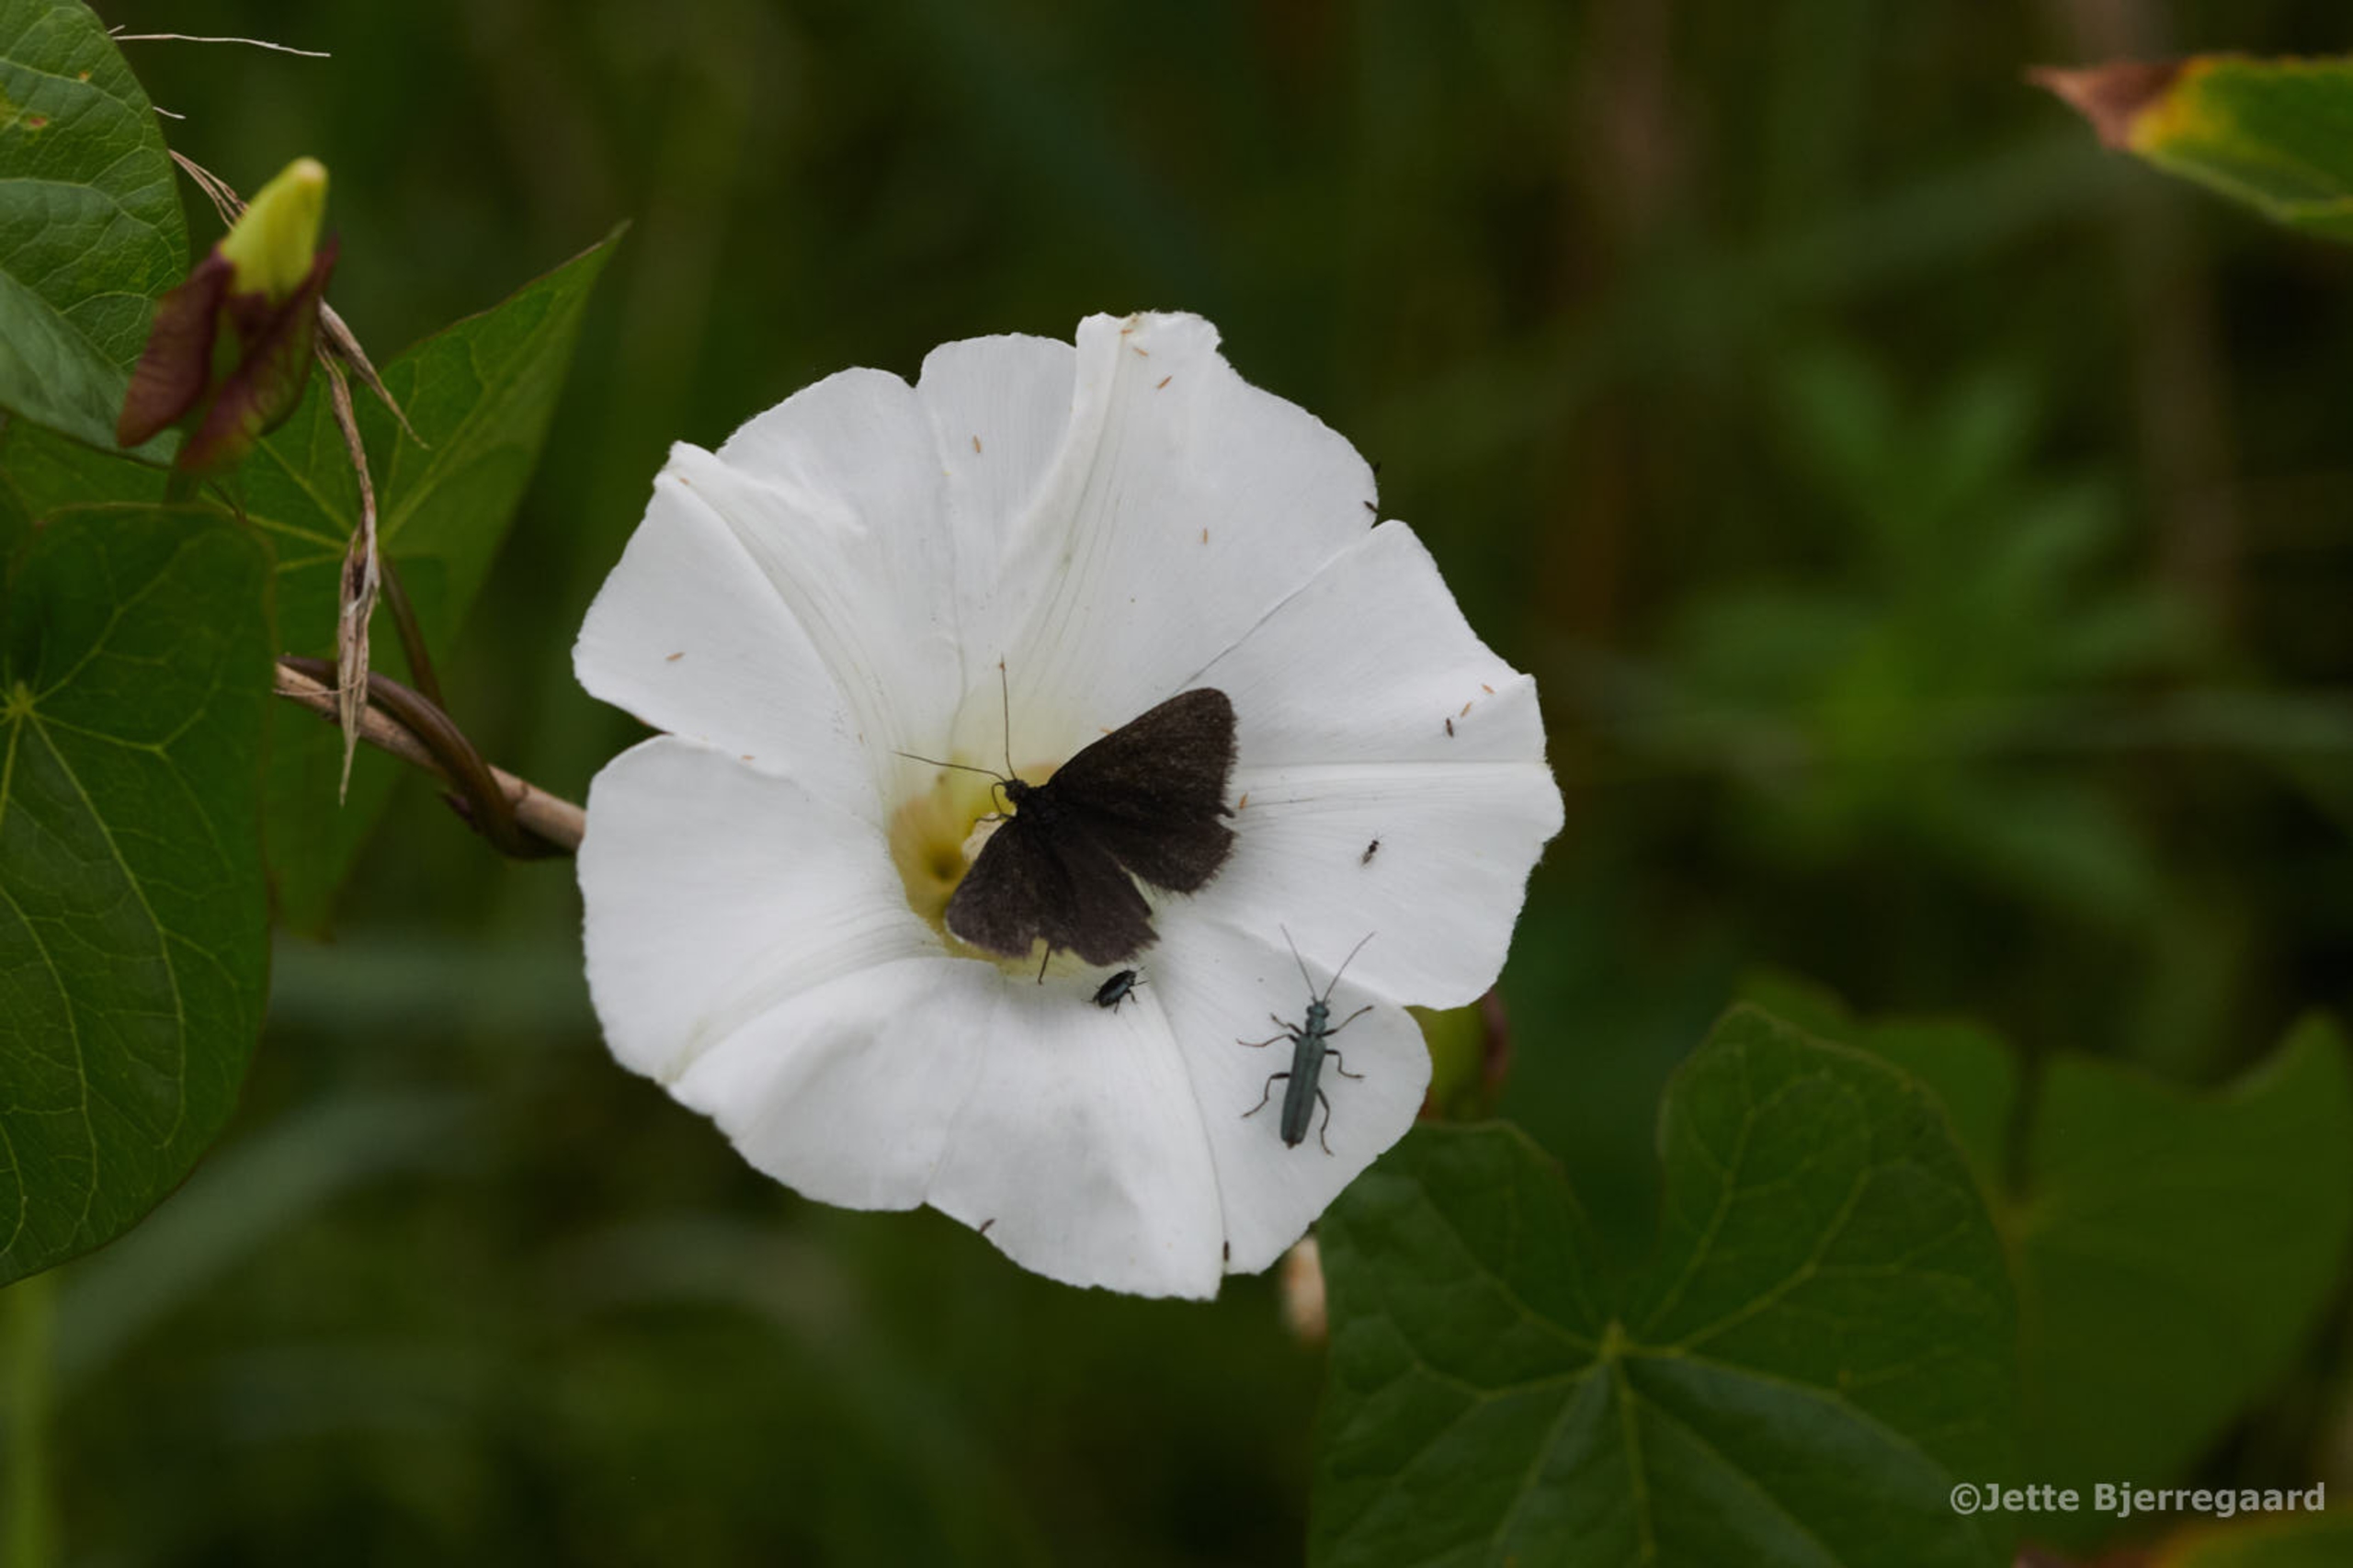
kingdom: Animalia
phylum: Arthropoda
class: Insecta
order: Lepidoptera
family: Geometridae
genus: Odezia
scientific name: Odezia atrata
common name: Sort måler
